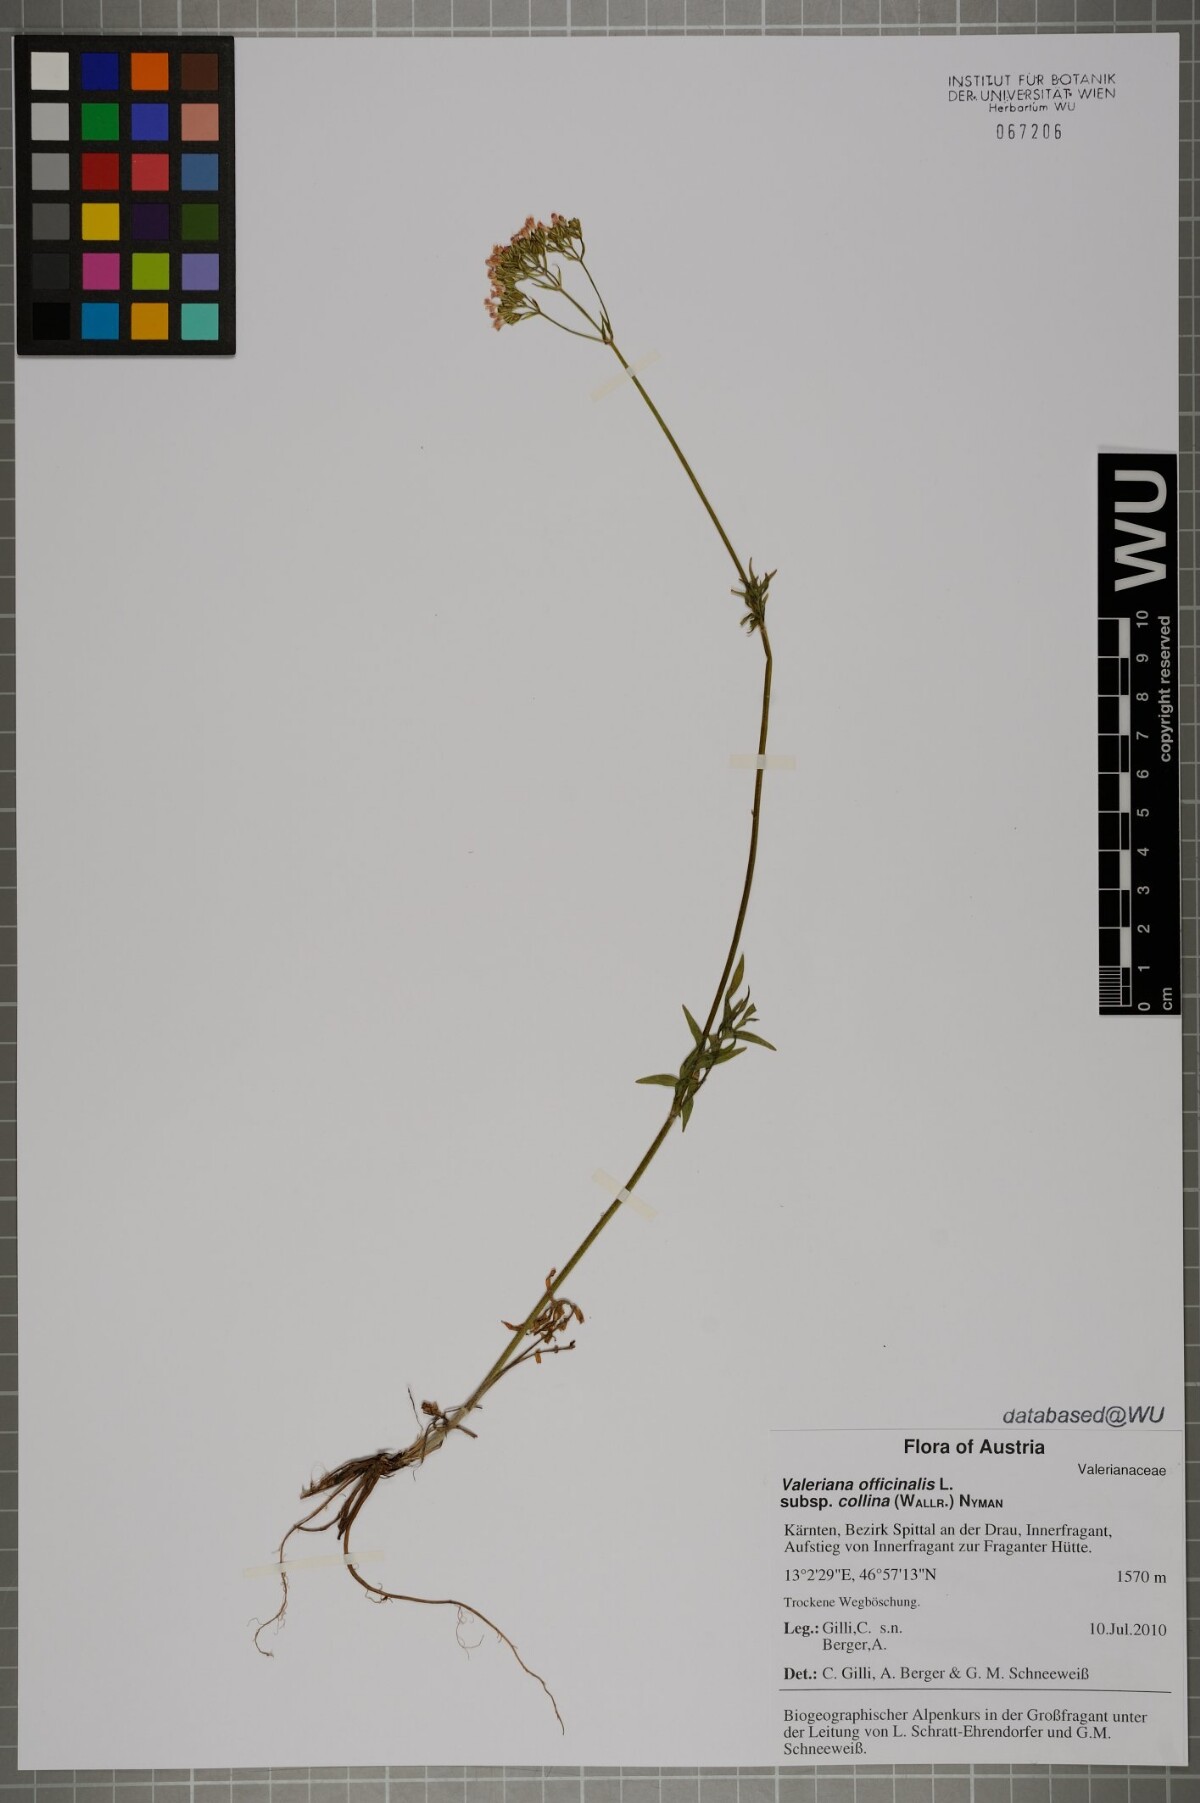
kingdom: Plantae
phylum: Tracheophyta
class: Magnoliopsida
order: Dipsacales
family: Caprifoliaceae
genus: Valeriana
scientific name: Valeriana pratensis
